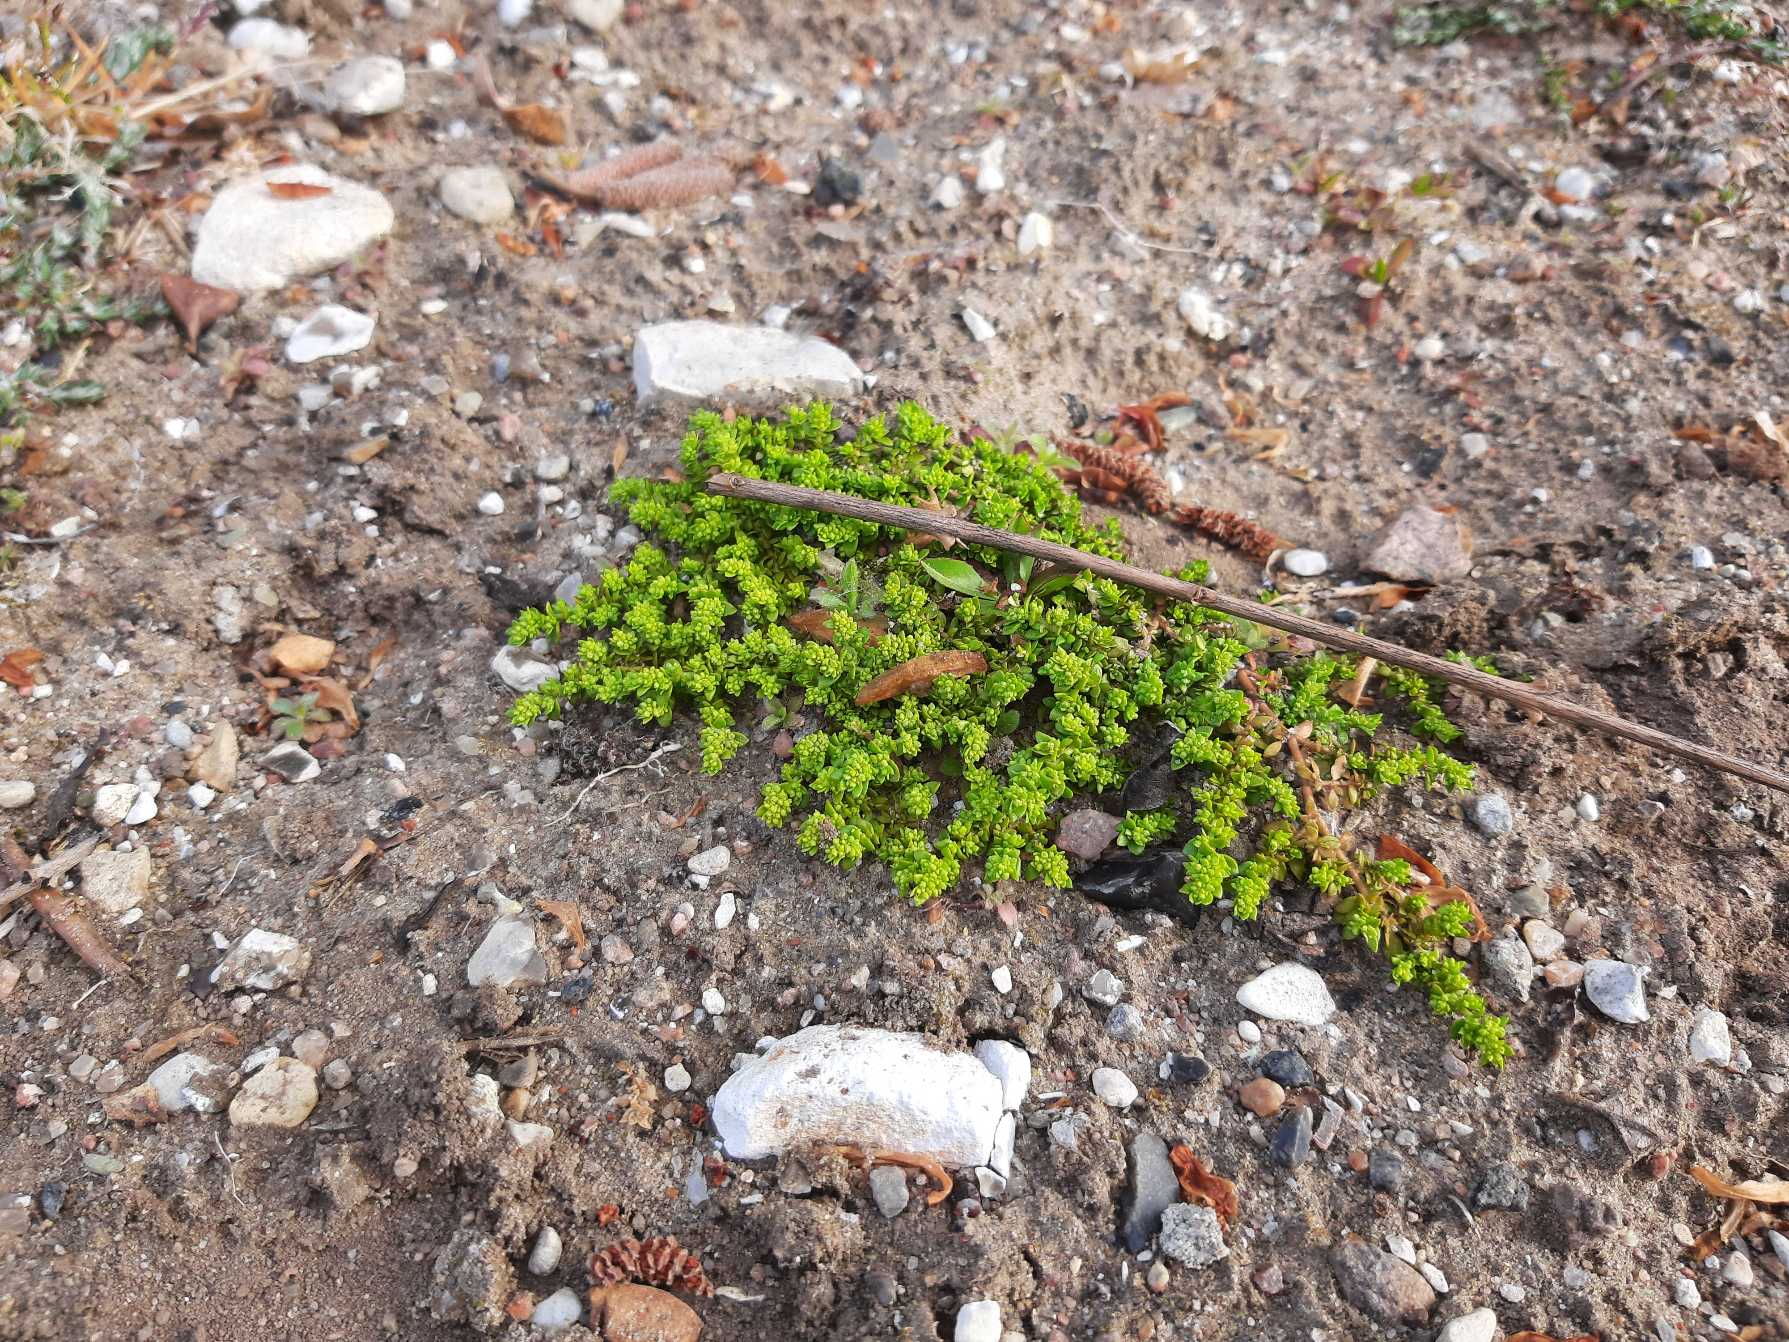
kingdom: Plantae
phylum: Tracheophyta
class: Magnoliopsida
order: Caryophyllales
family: Caryophyllaceae
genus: Herniaria
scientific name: Herniaria glabra
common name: Brudurt
